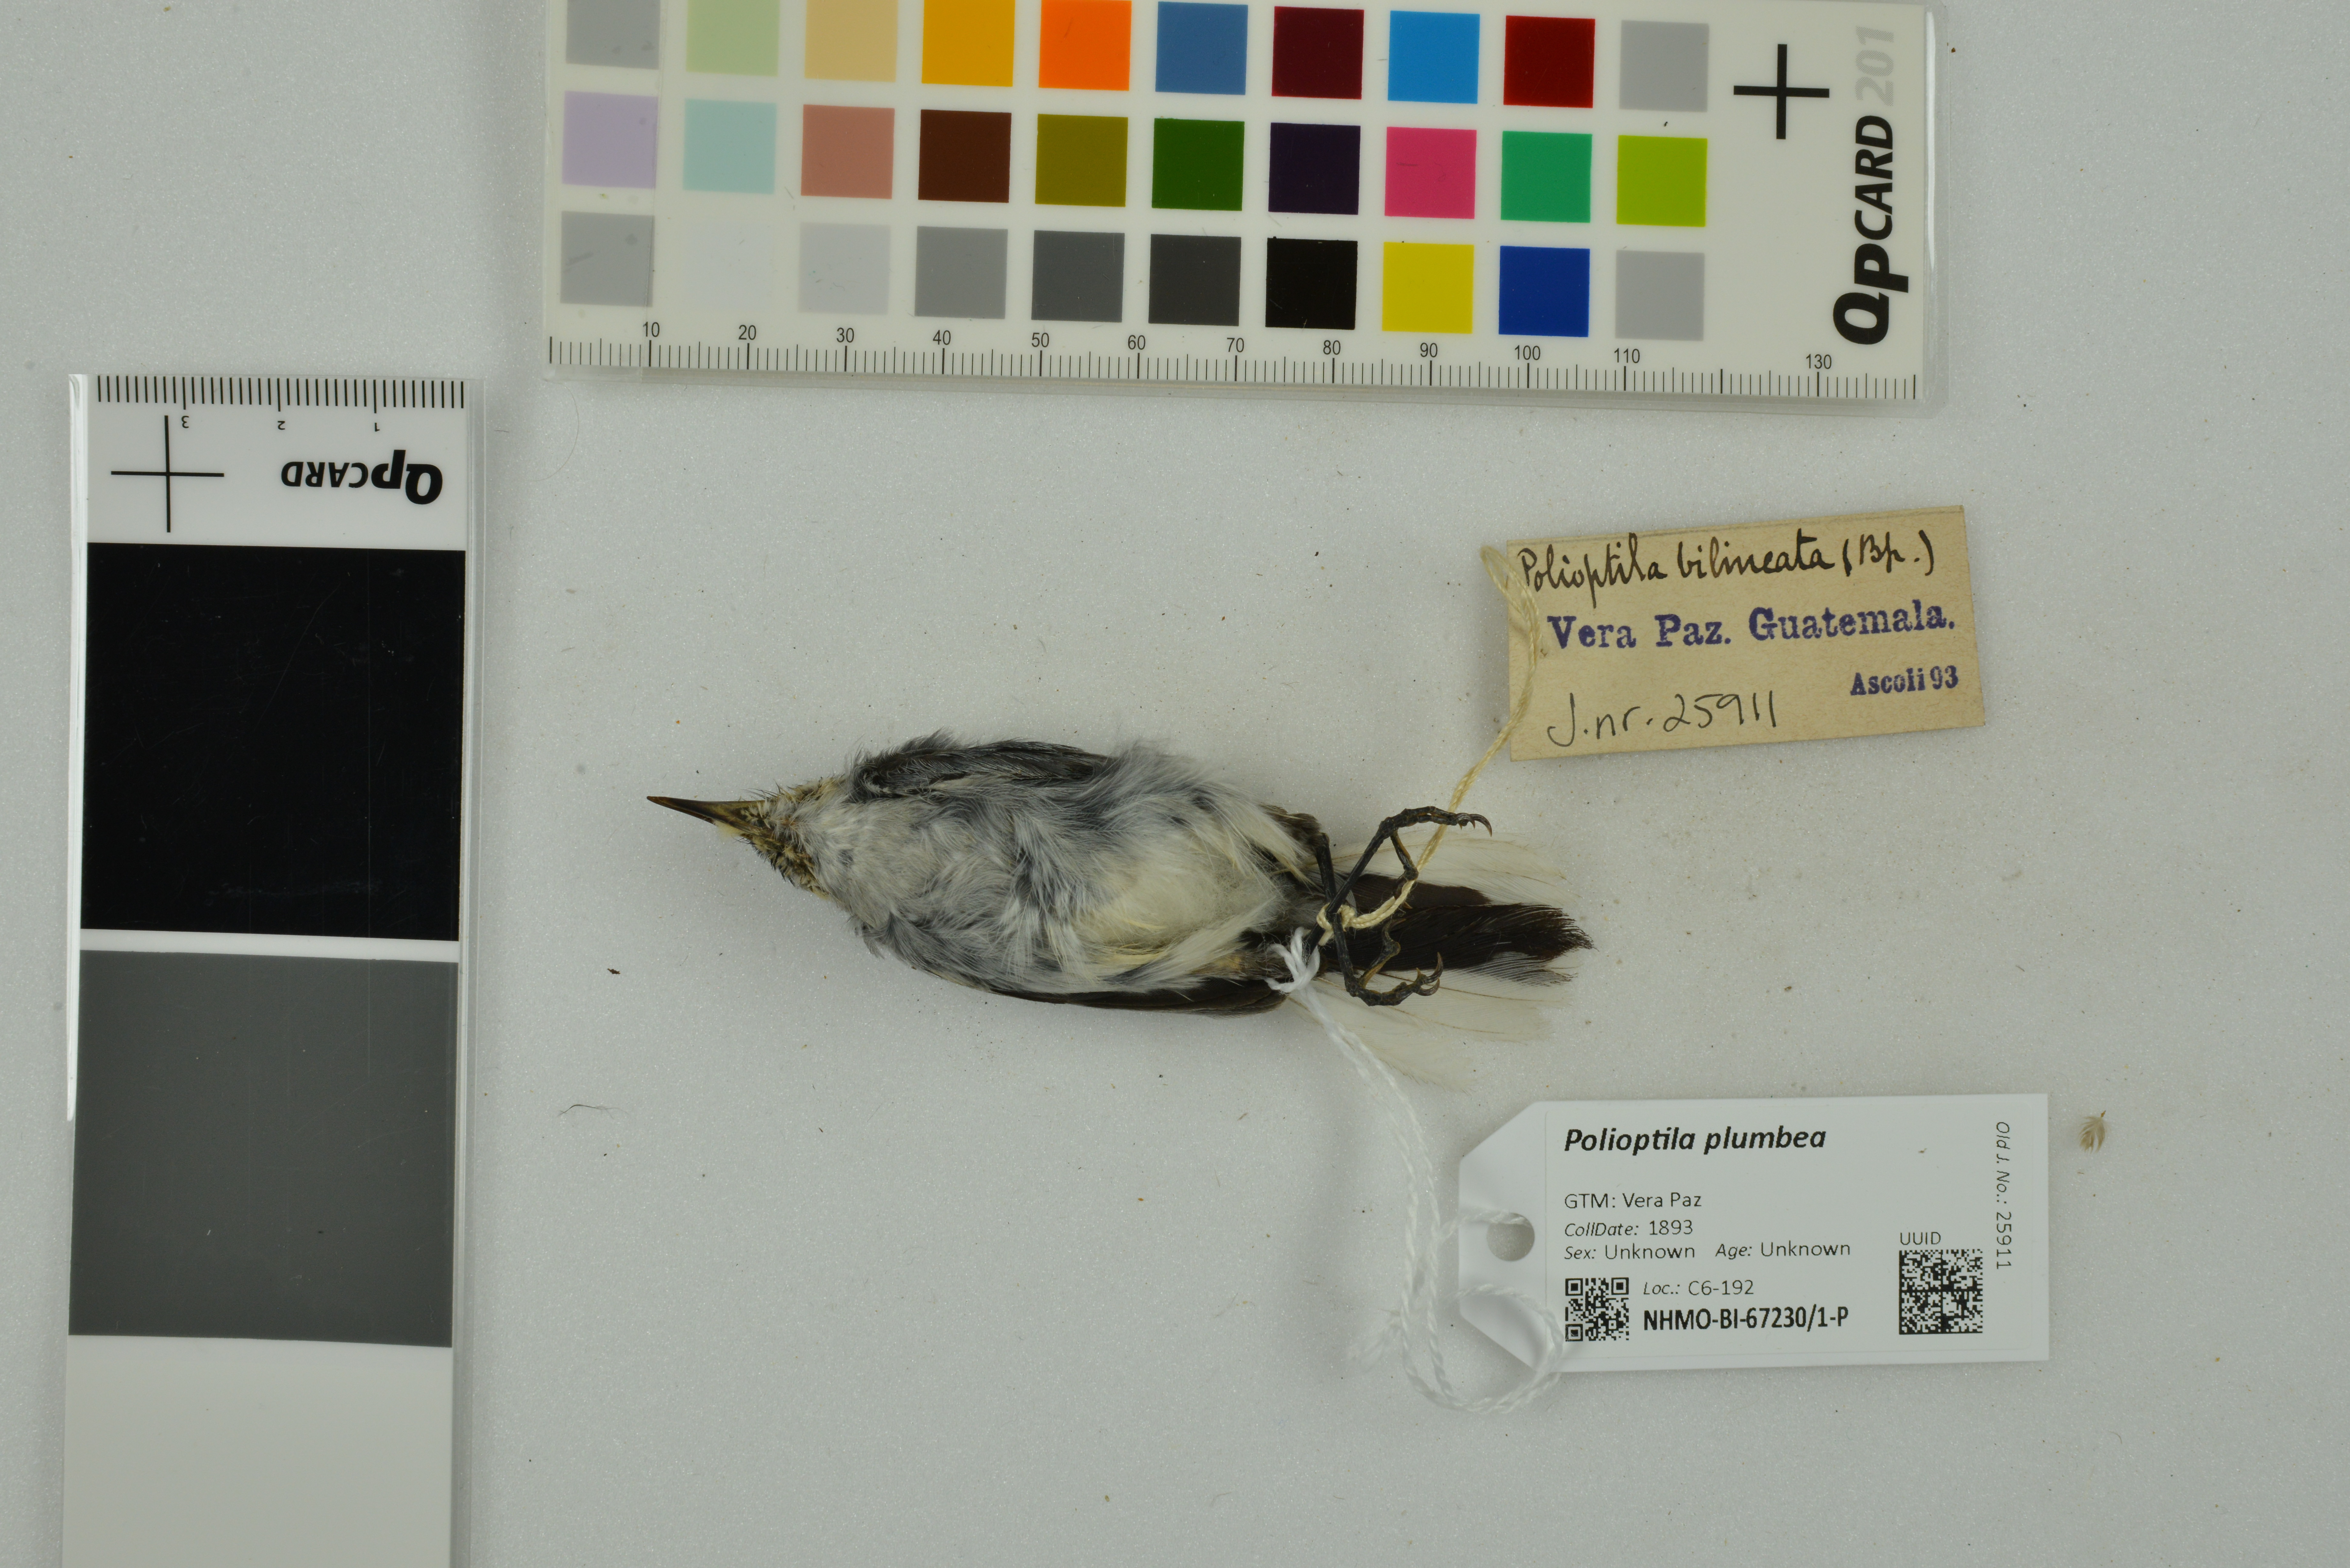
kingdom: Animalia
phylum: Chordata
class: Aves
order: Passeriformes
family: Polioptilidae
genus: Polioptila
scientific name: Polioptila plumbea
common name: Tropical gnatcatcher
